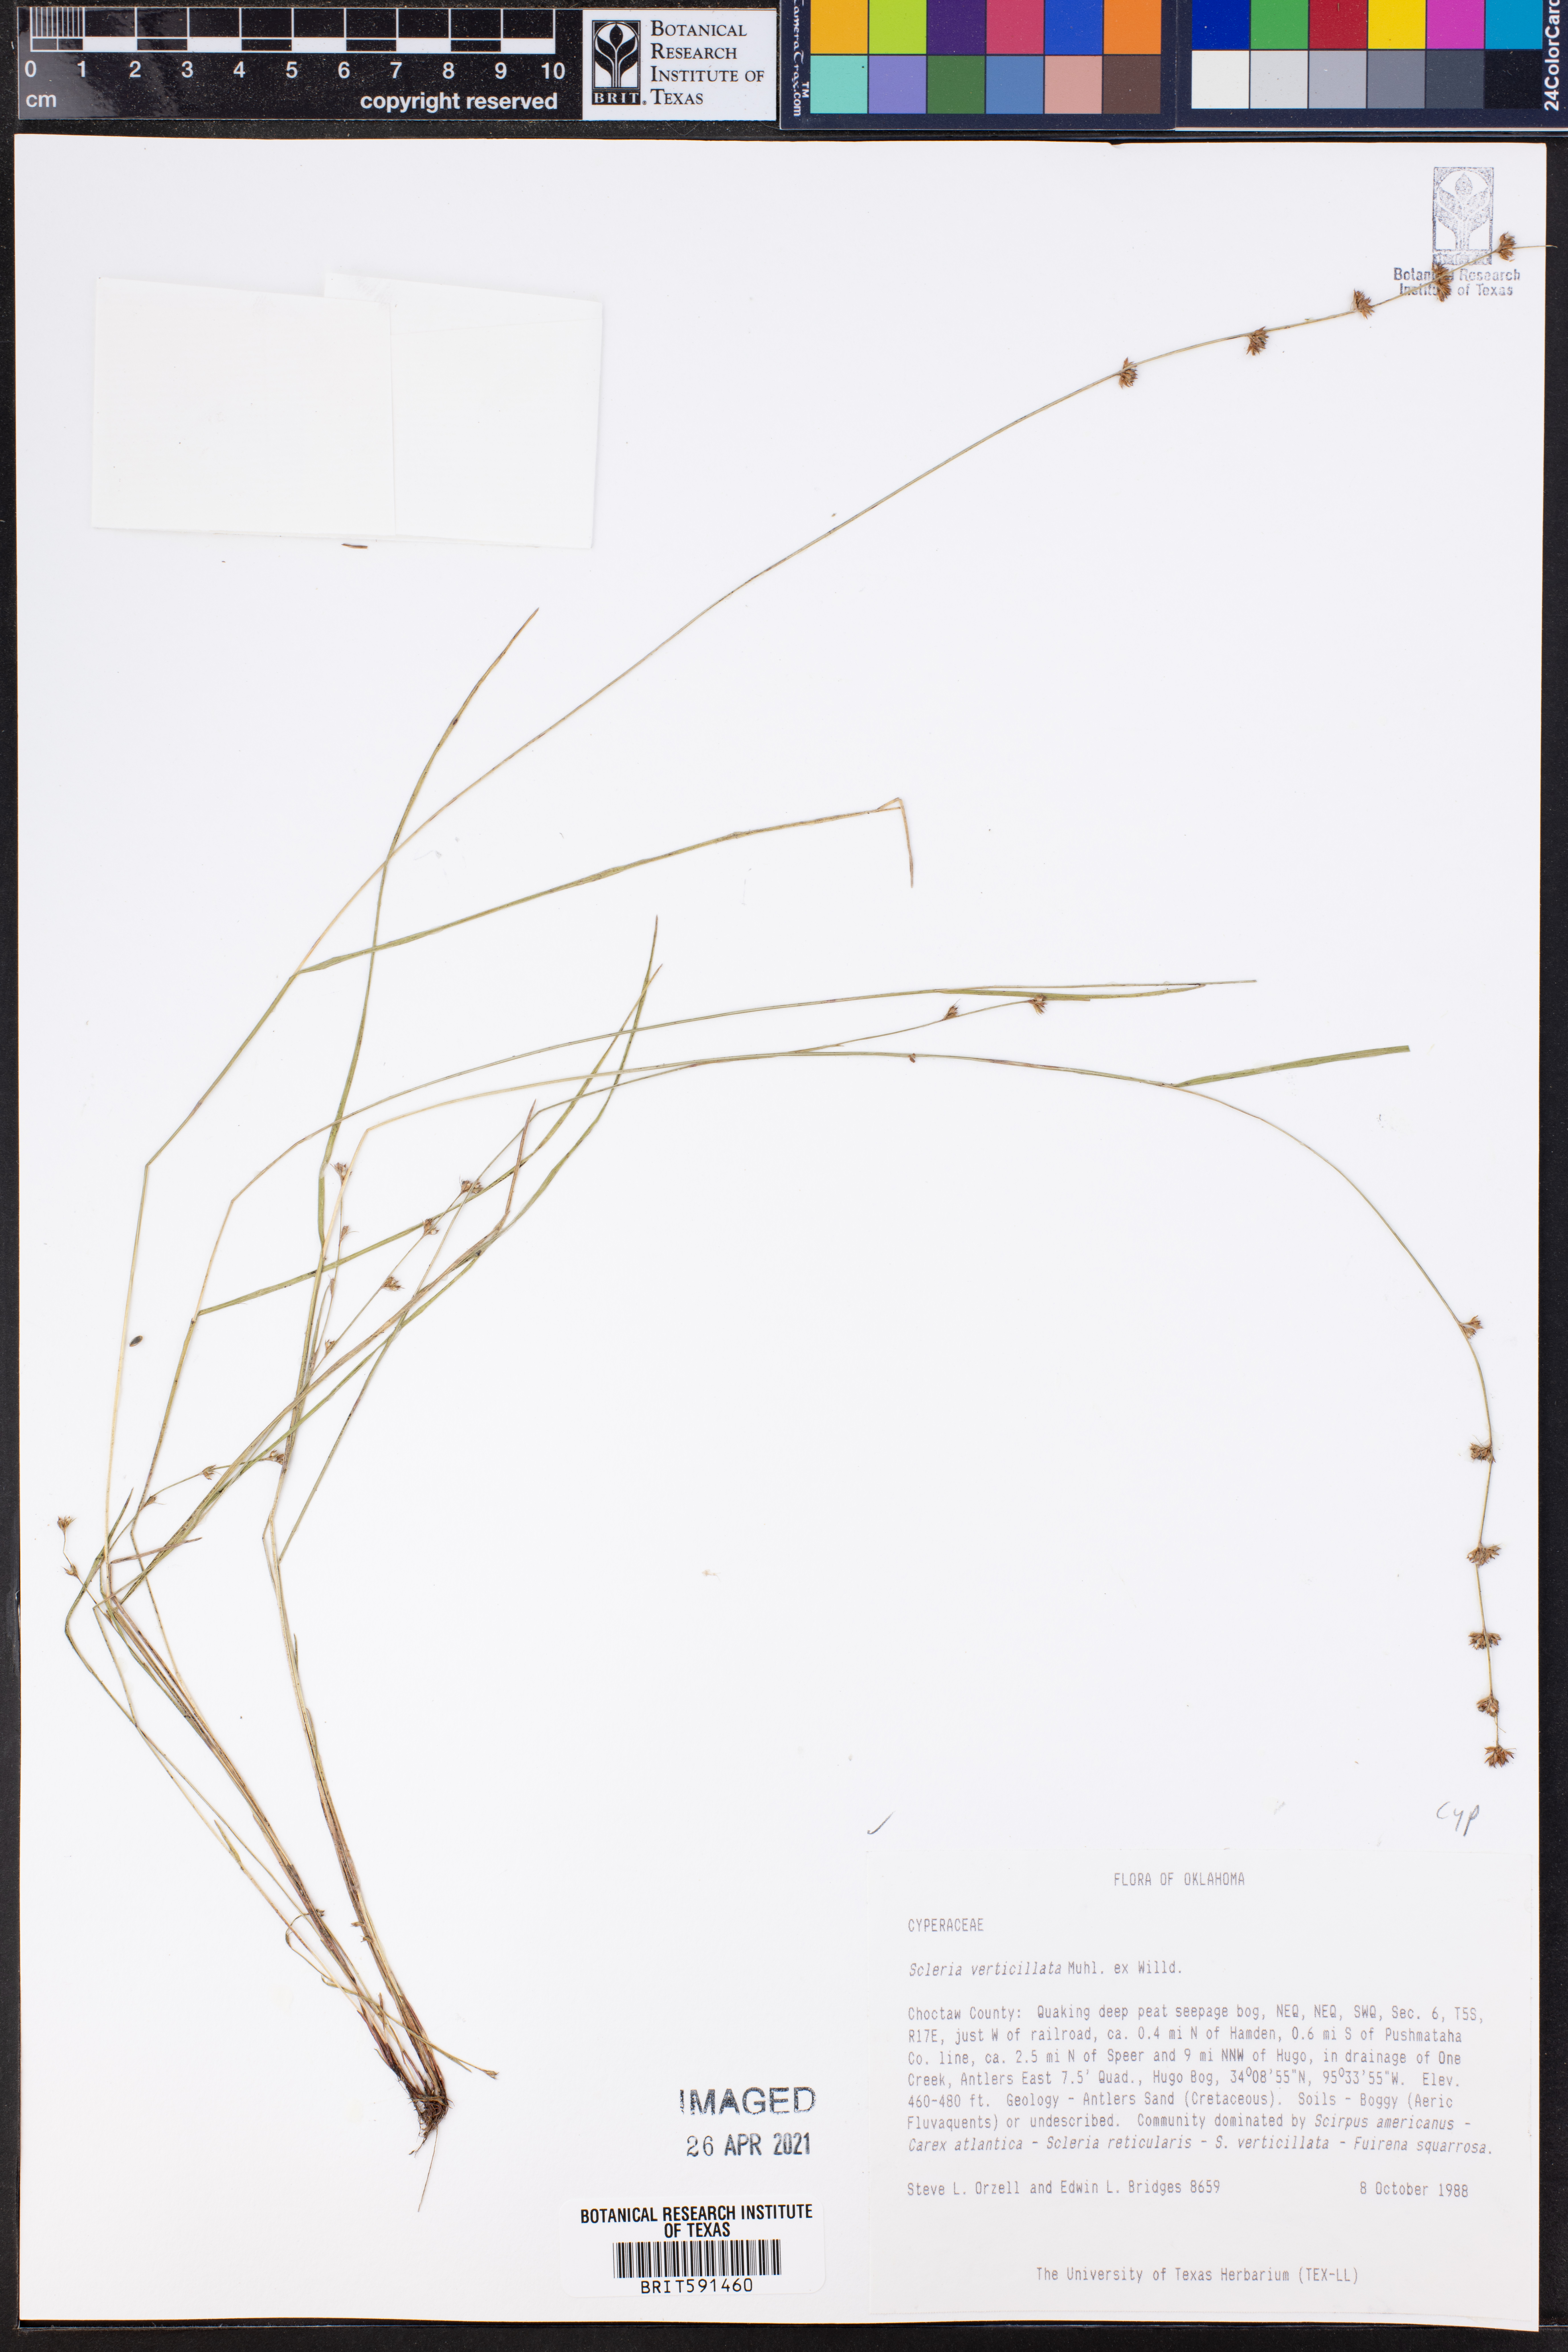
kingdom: Plantae
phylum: Tracheophyta
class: Liliopsida
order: Poales
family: Cyperaceae
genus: Scleria
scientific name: Scleria verticillata
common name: Low nutrush
